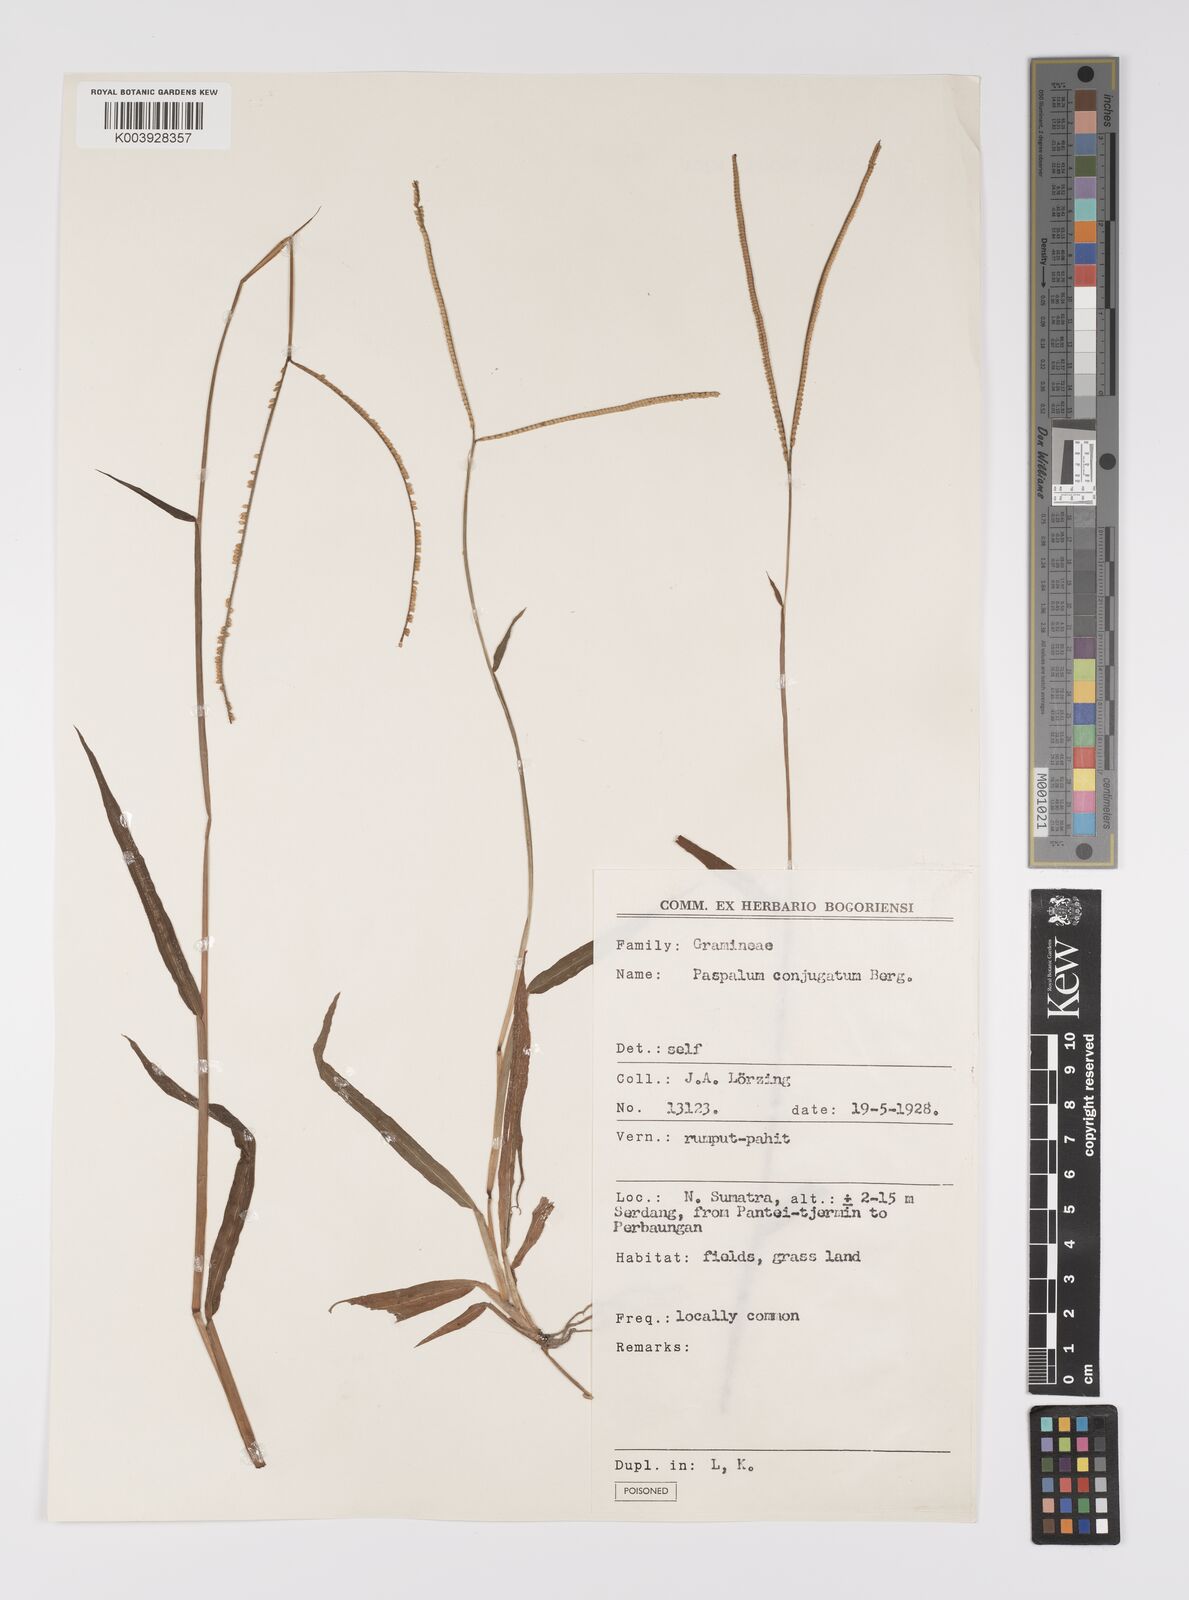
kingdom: Plantae
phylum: Tracheophyta
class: Liliopsida
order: Poales
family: Poaceae
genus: Paspalum
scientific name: Paspalum conjugatum
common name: Hilograss
